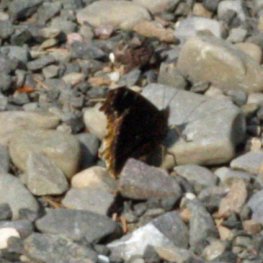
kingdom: Animalia
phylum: Arthropoda
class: Insecta
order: Lepidoptera
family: Nymphalidae
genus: Nymphalis
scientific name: Nymphalis antiopa
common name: Mourning Cloak
